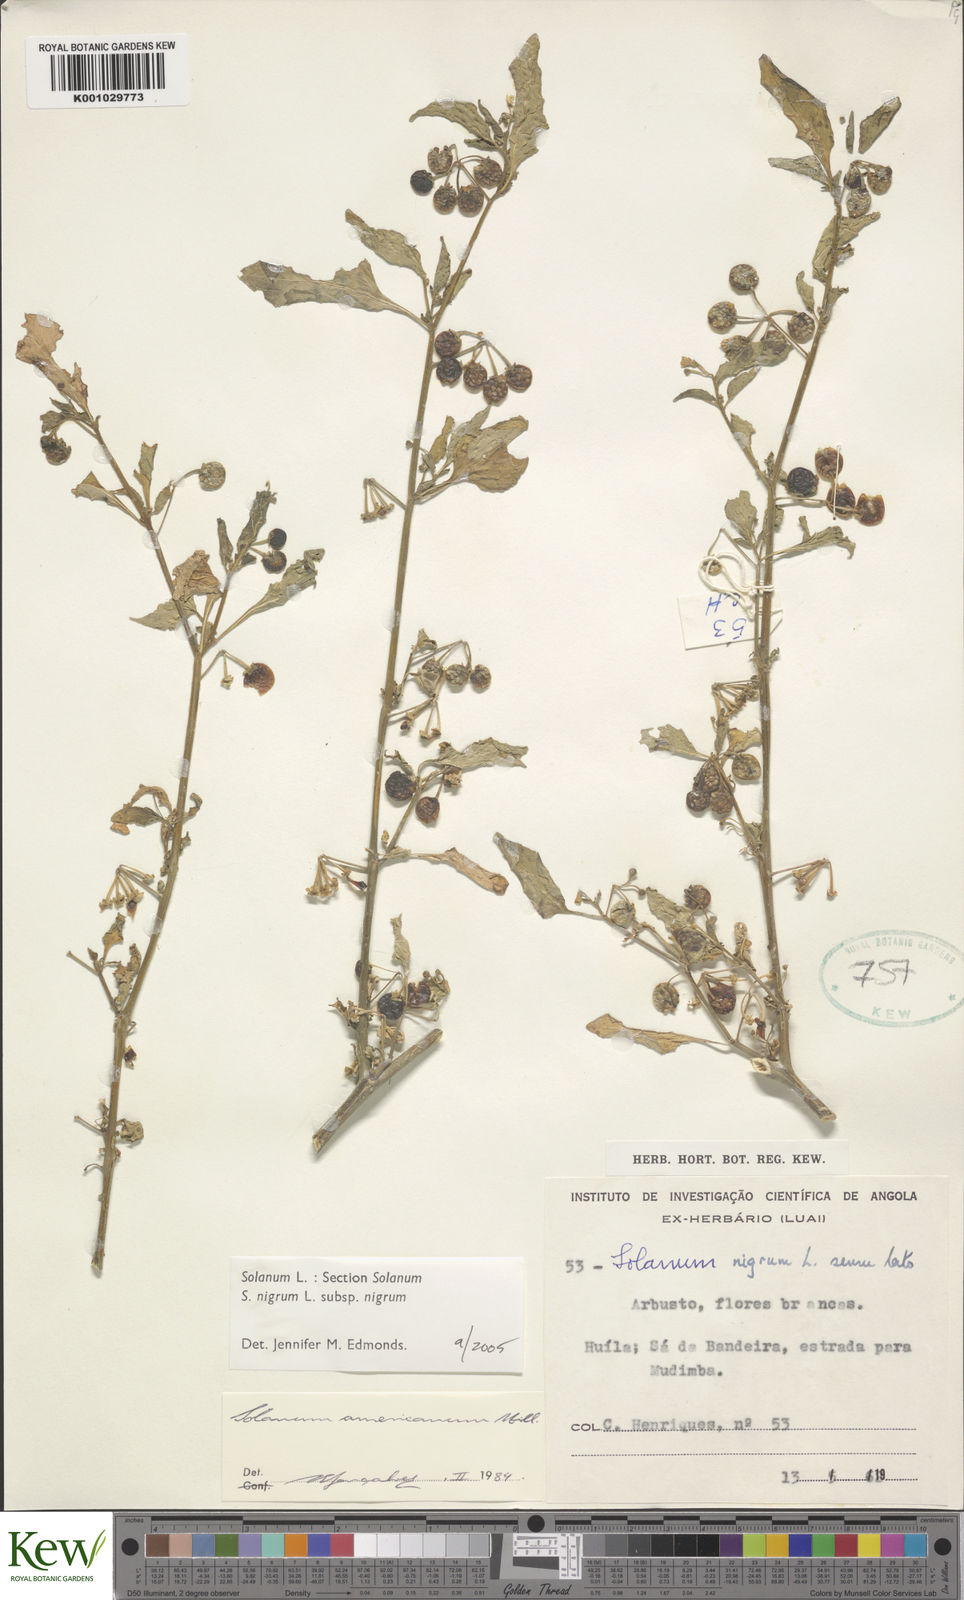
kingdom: Plantae
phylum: Tracheophyta
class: Magnoliopsida
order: Solanales
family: Solanaceae
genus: Solanum
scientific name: Solanum nigrum
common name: Black nightshade
